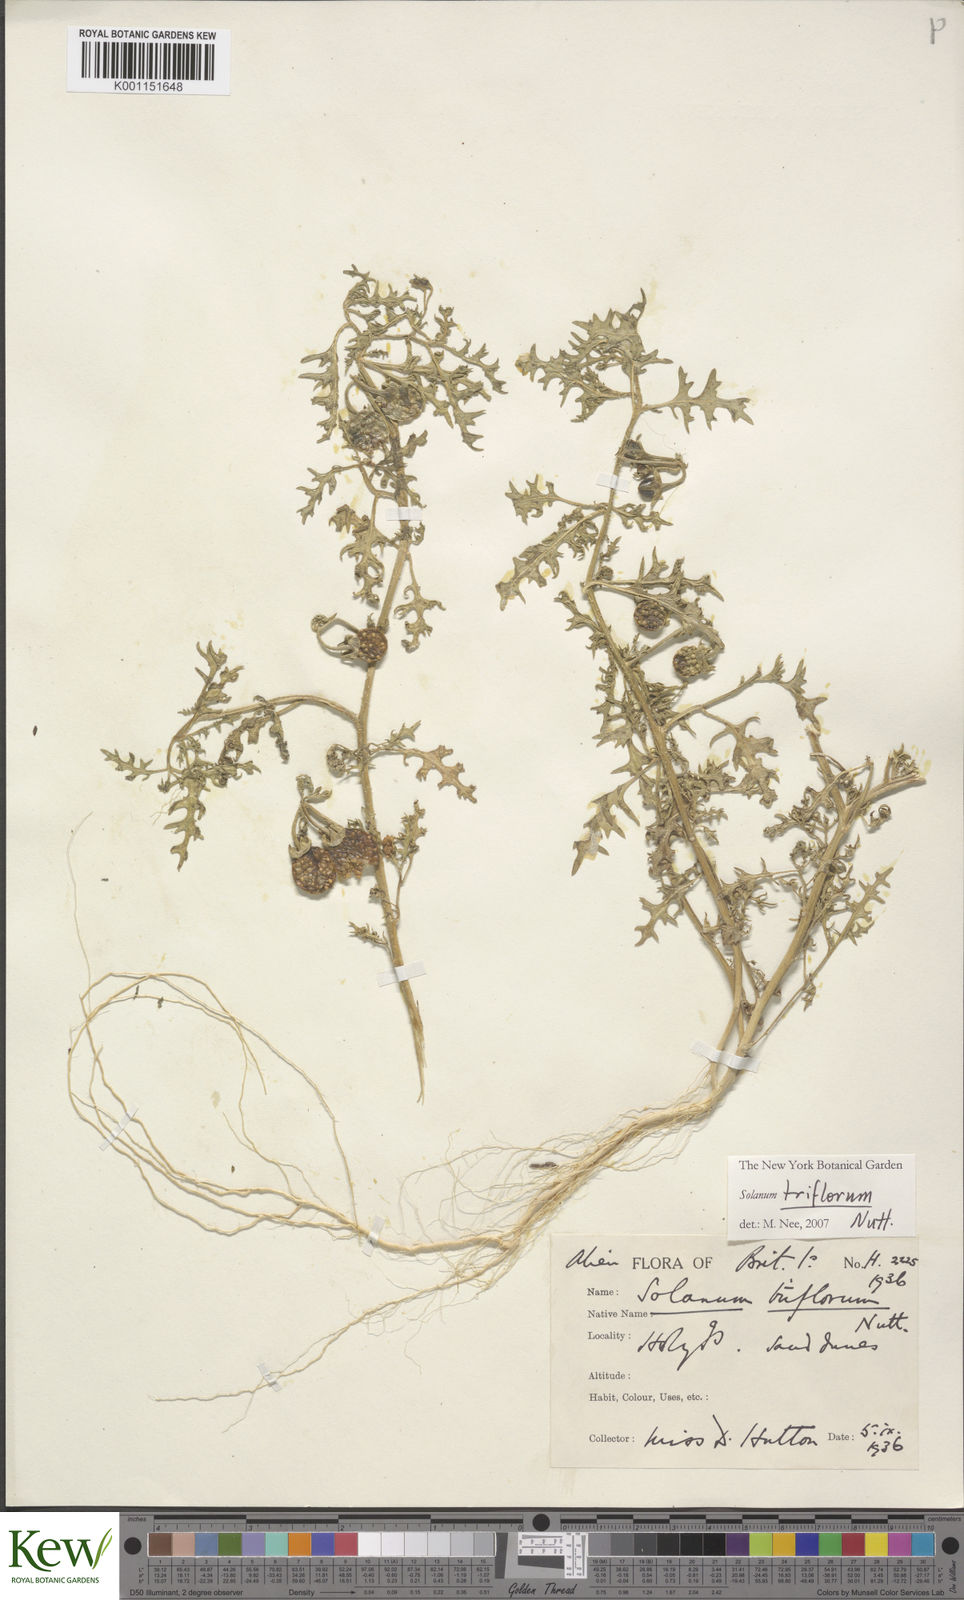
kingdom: Plantae
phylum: Tracheophyta
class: Magnoliopsida
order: Solanales
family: Solanaceae
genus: Solanum
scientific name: Solanum triflorum
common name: Small nightshade
